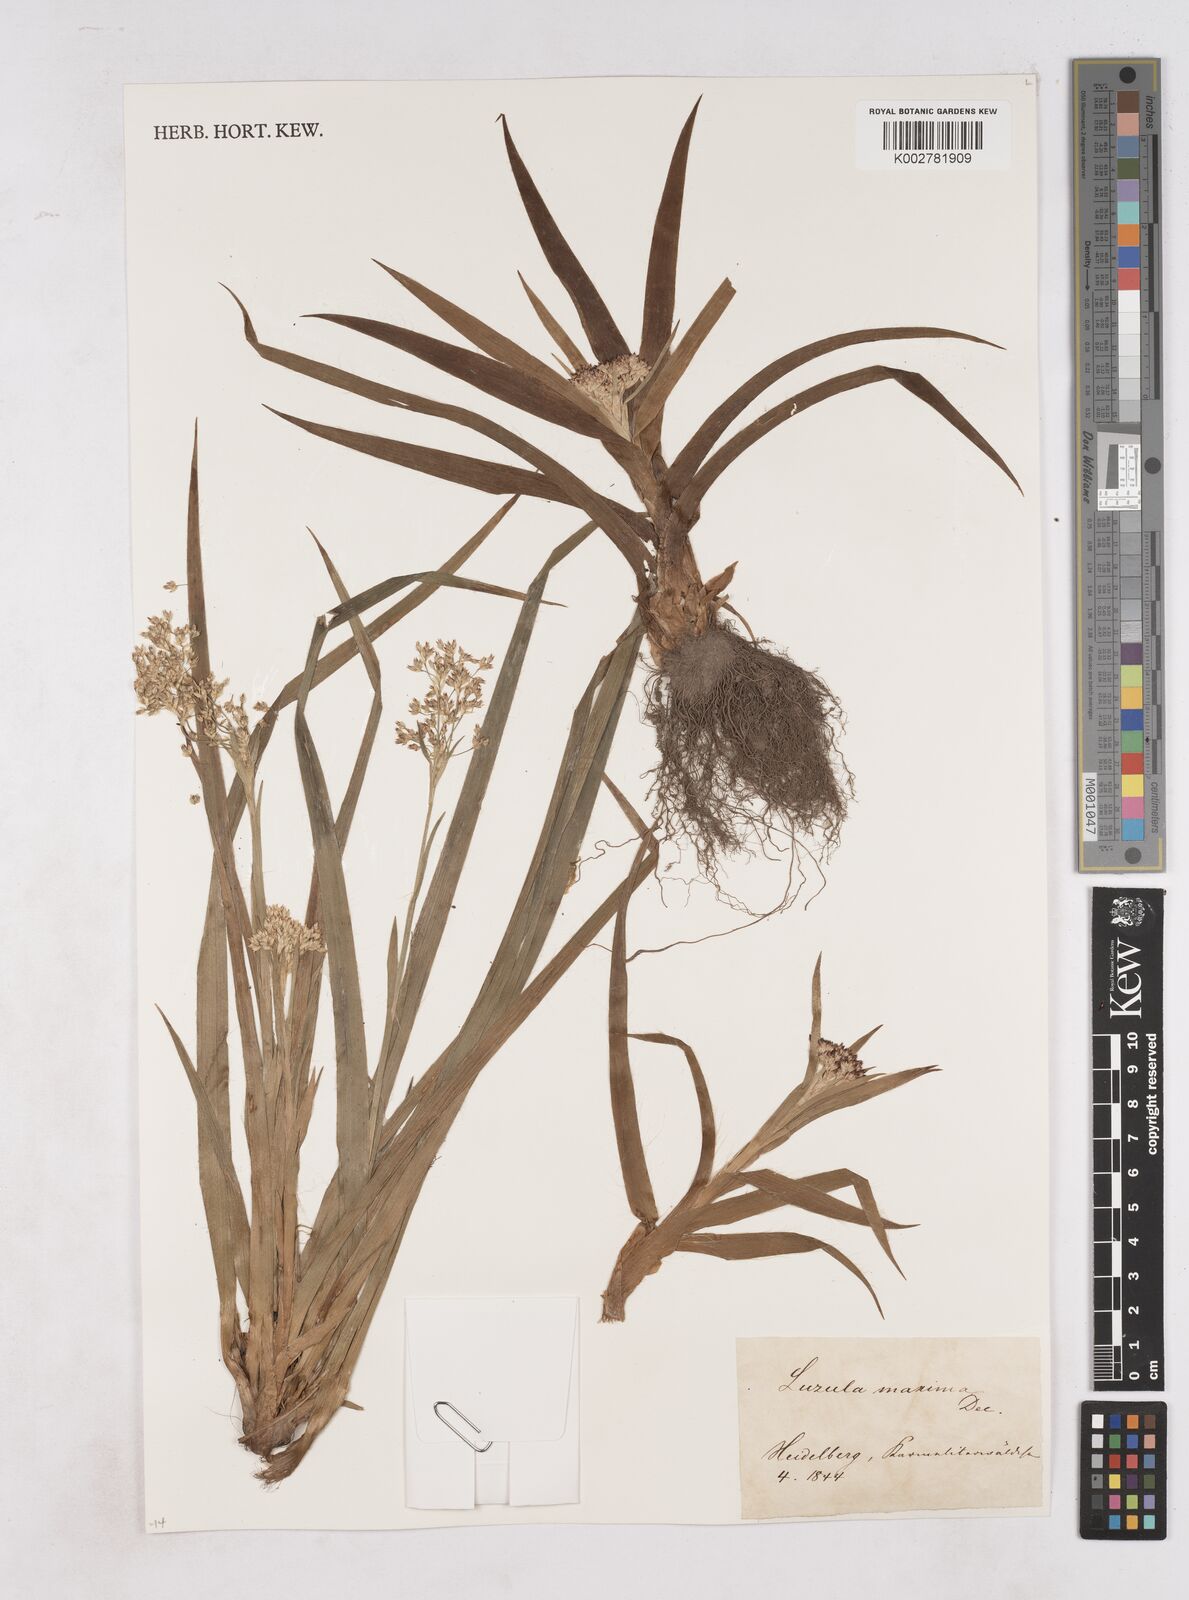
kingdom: Plantae
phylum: Tracheophyta
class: Liliopsida
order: Poales
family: Juncaceae
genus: Luzula
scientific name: Luzula sylvatica
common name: Great wood-rush
